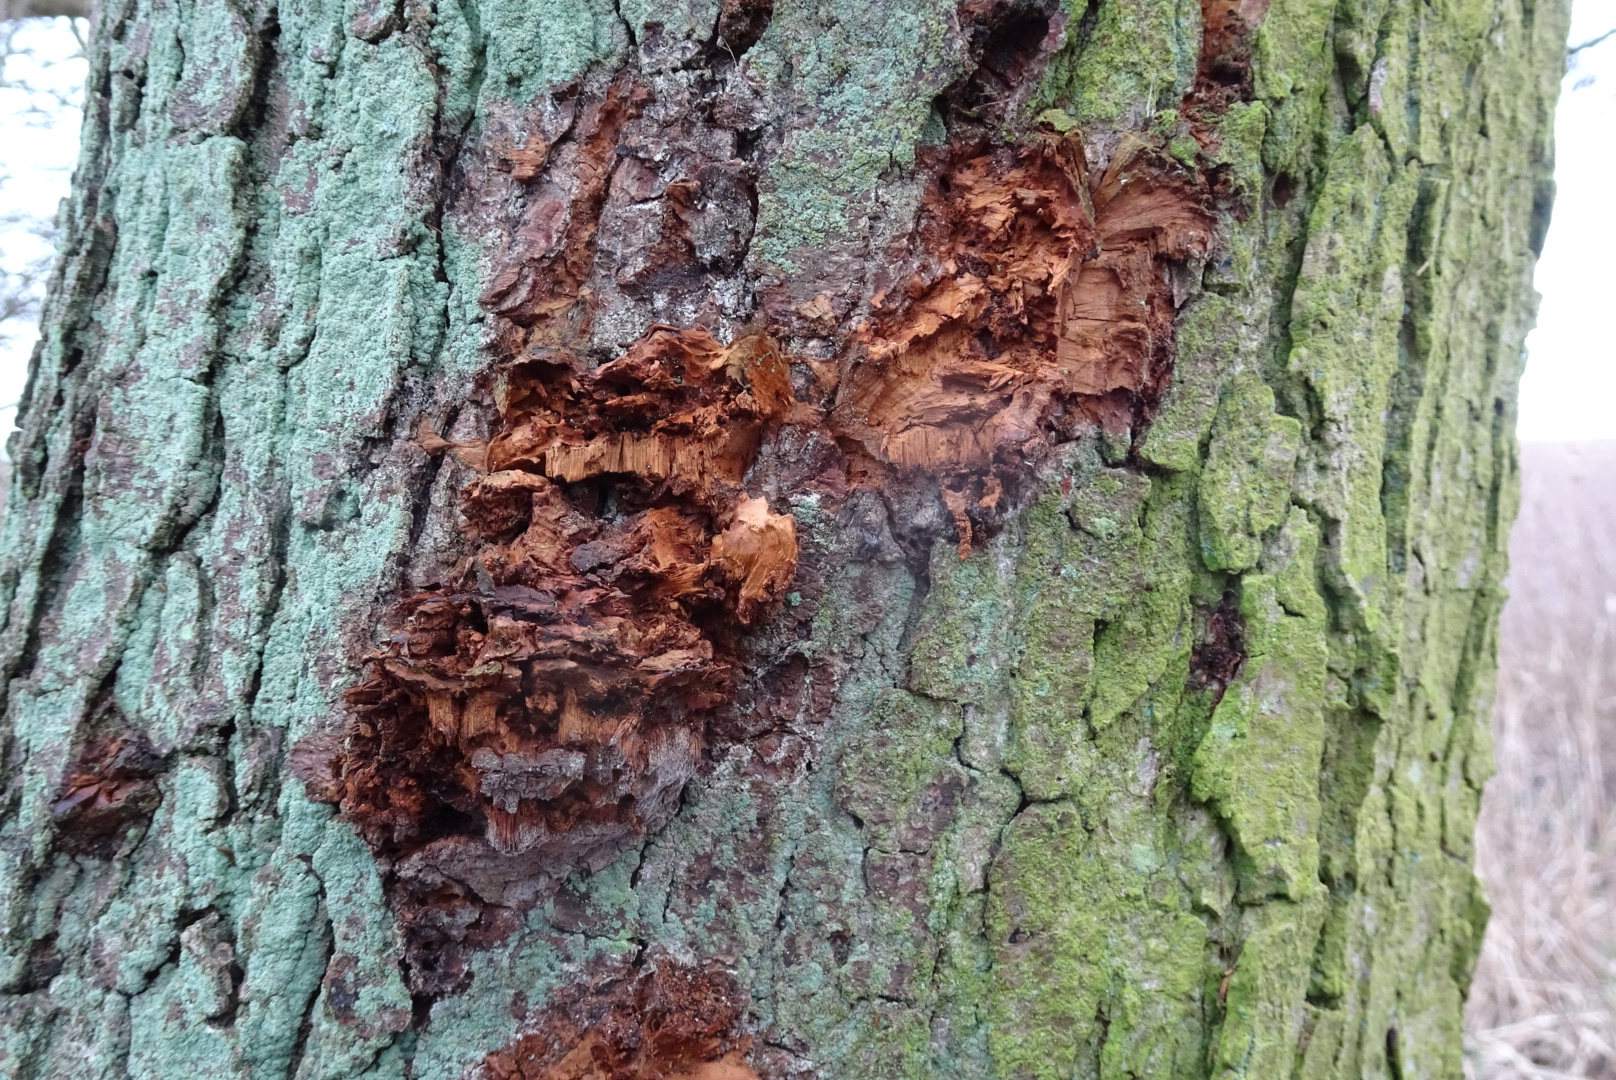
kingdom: Fungi
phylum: Basidiomycota
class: Agaricomycetes
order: Hymenochaetales
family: Hymenochaetaceae
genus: Xanthoporia
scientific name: Xanthoporia radiata
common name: elle-spejlporesvamp
